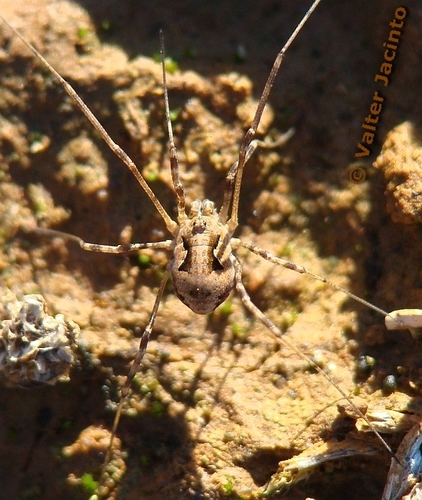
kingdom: Animalia
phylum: Arthropoda
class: Arachnida
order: Opiliones
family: Phalangiidae
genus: Metaphalangium
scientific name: Metaphalangium
